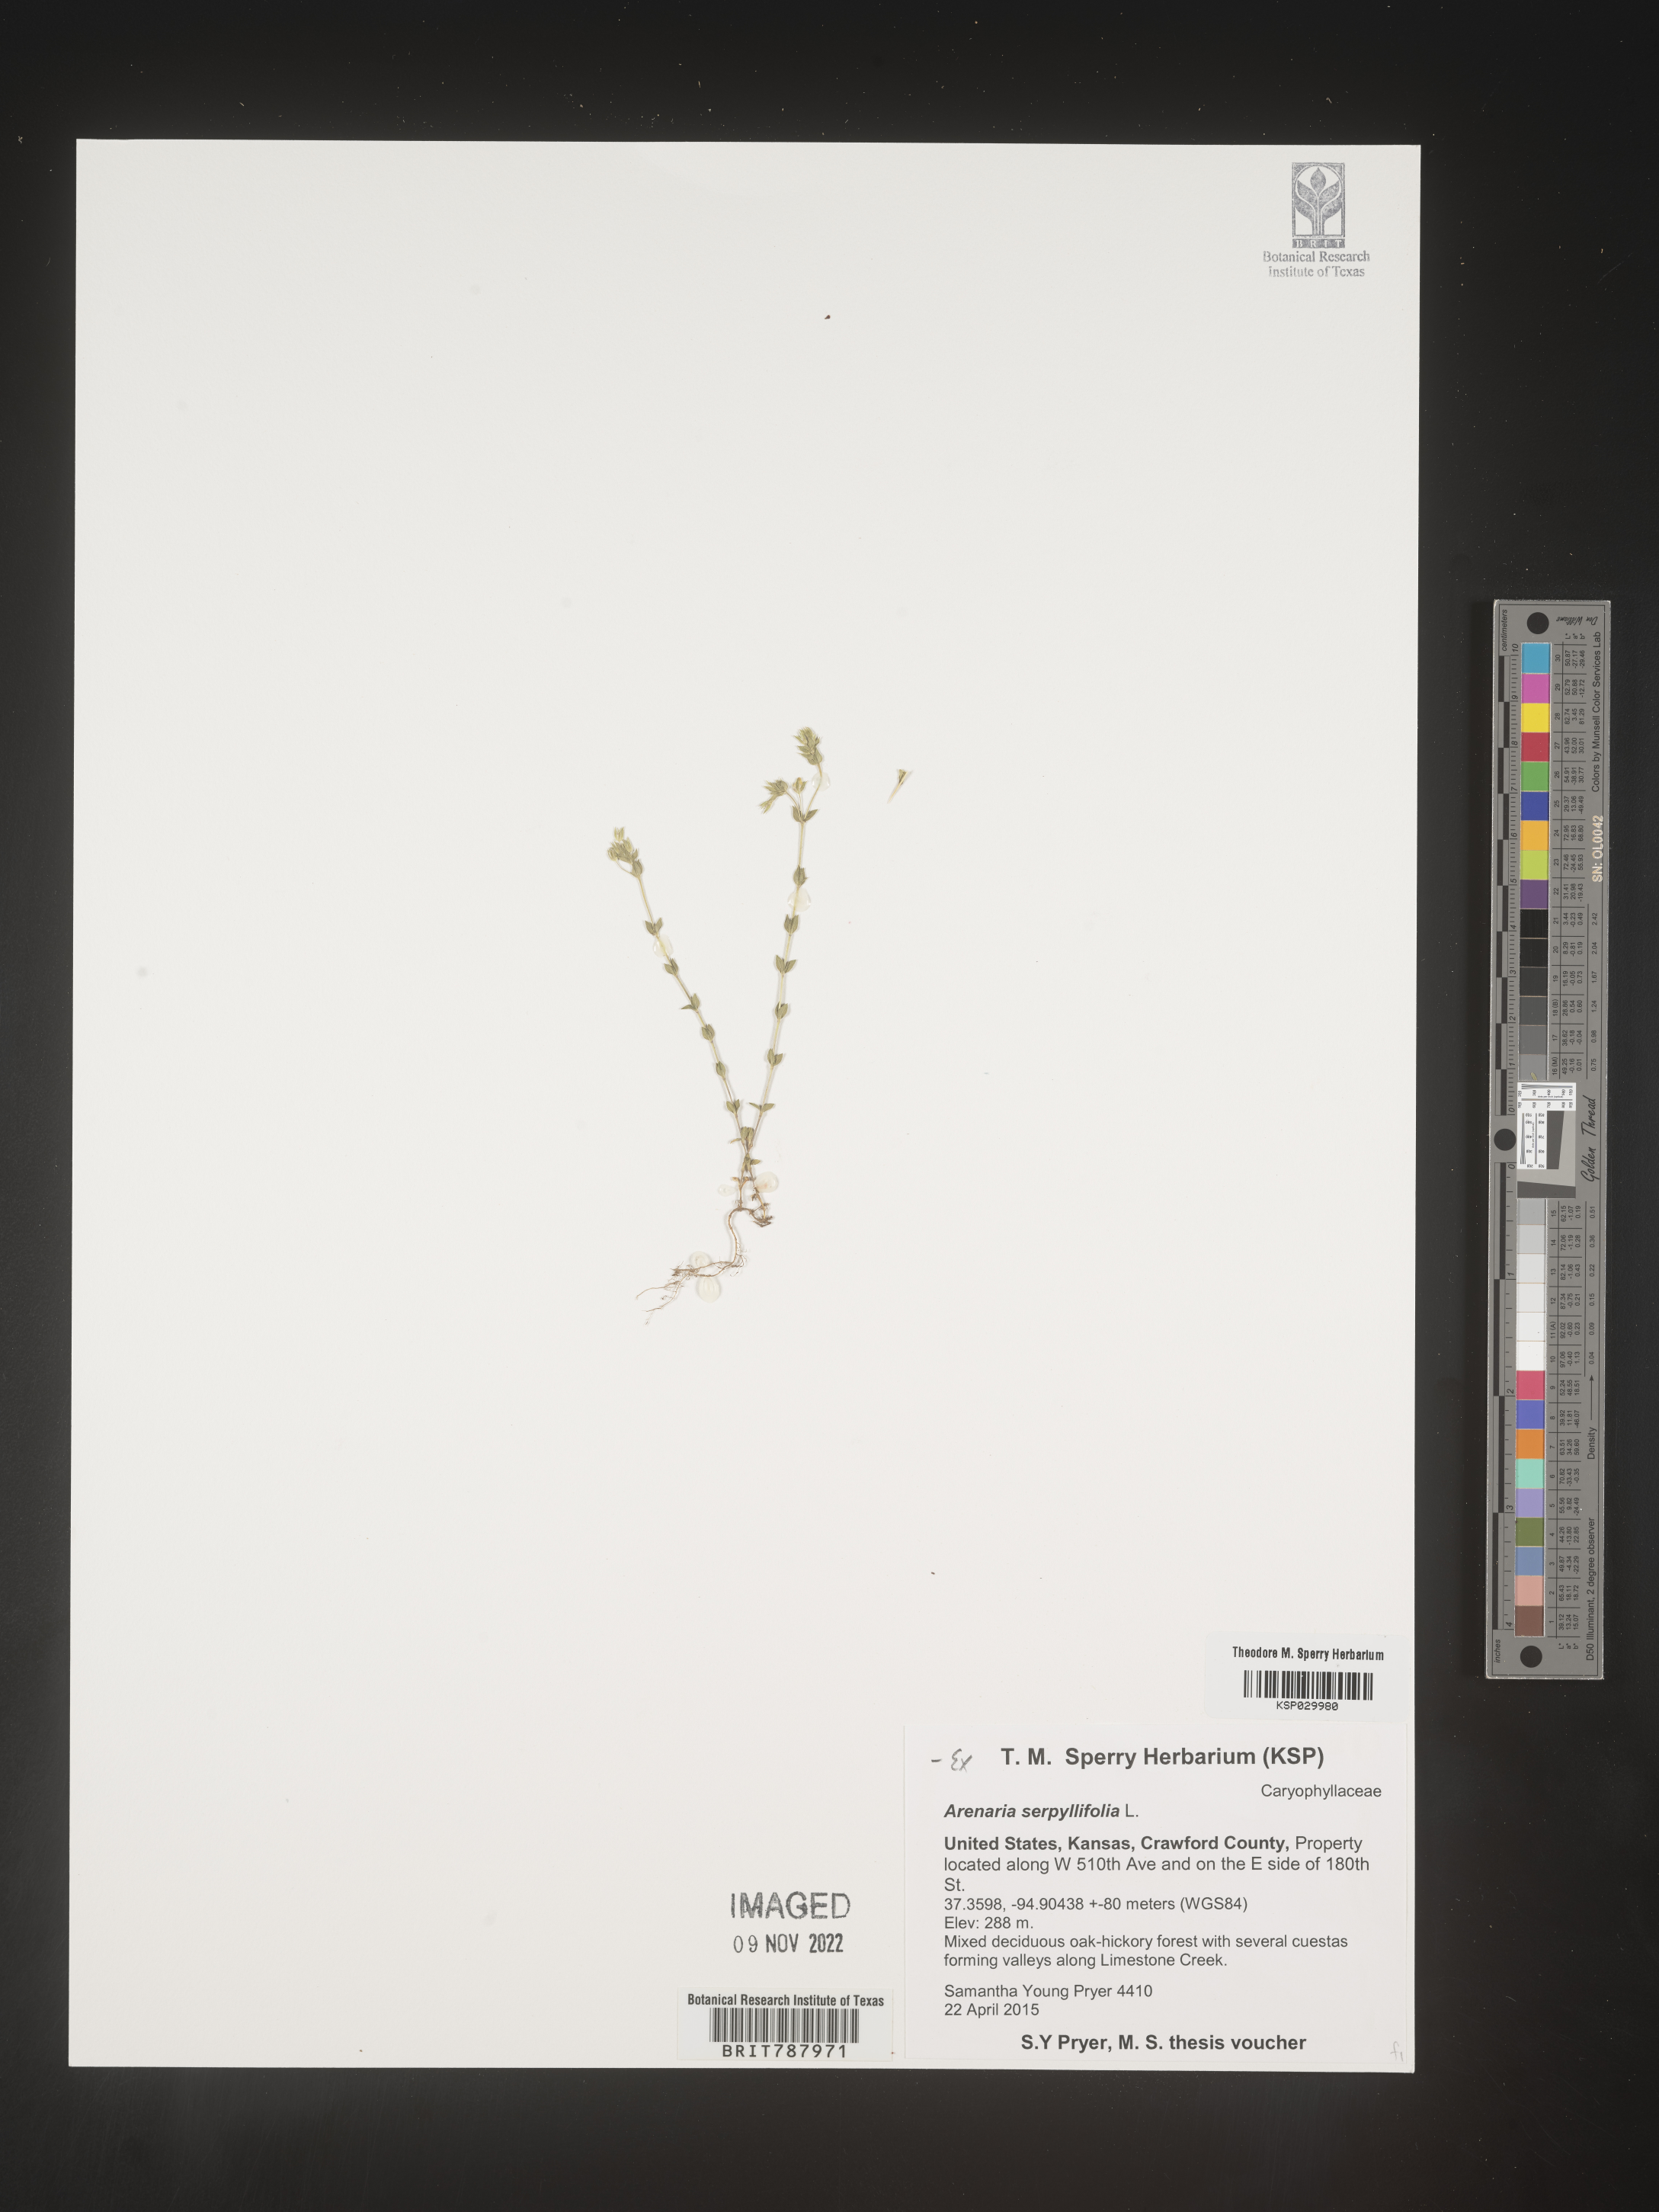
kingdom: Plantae
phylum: Tracheophyta
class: Magnoliopsida
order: Caryophyllales
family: Caryophyllaceae
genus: Arenaria
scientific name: Arenaria serpyllifolia
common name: Thyme-leaved sandwort
